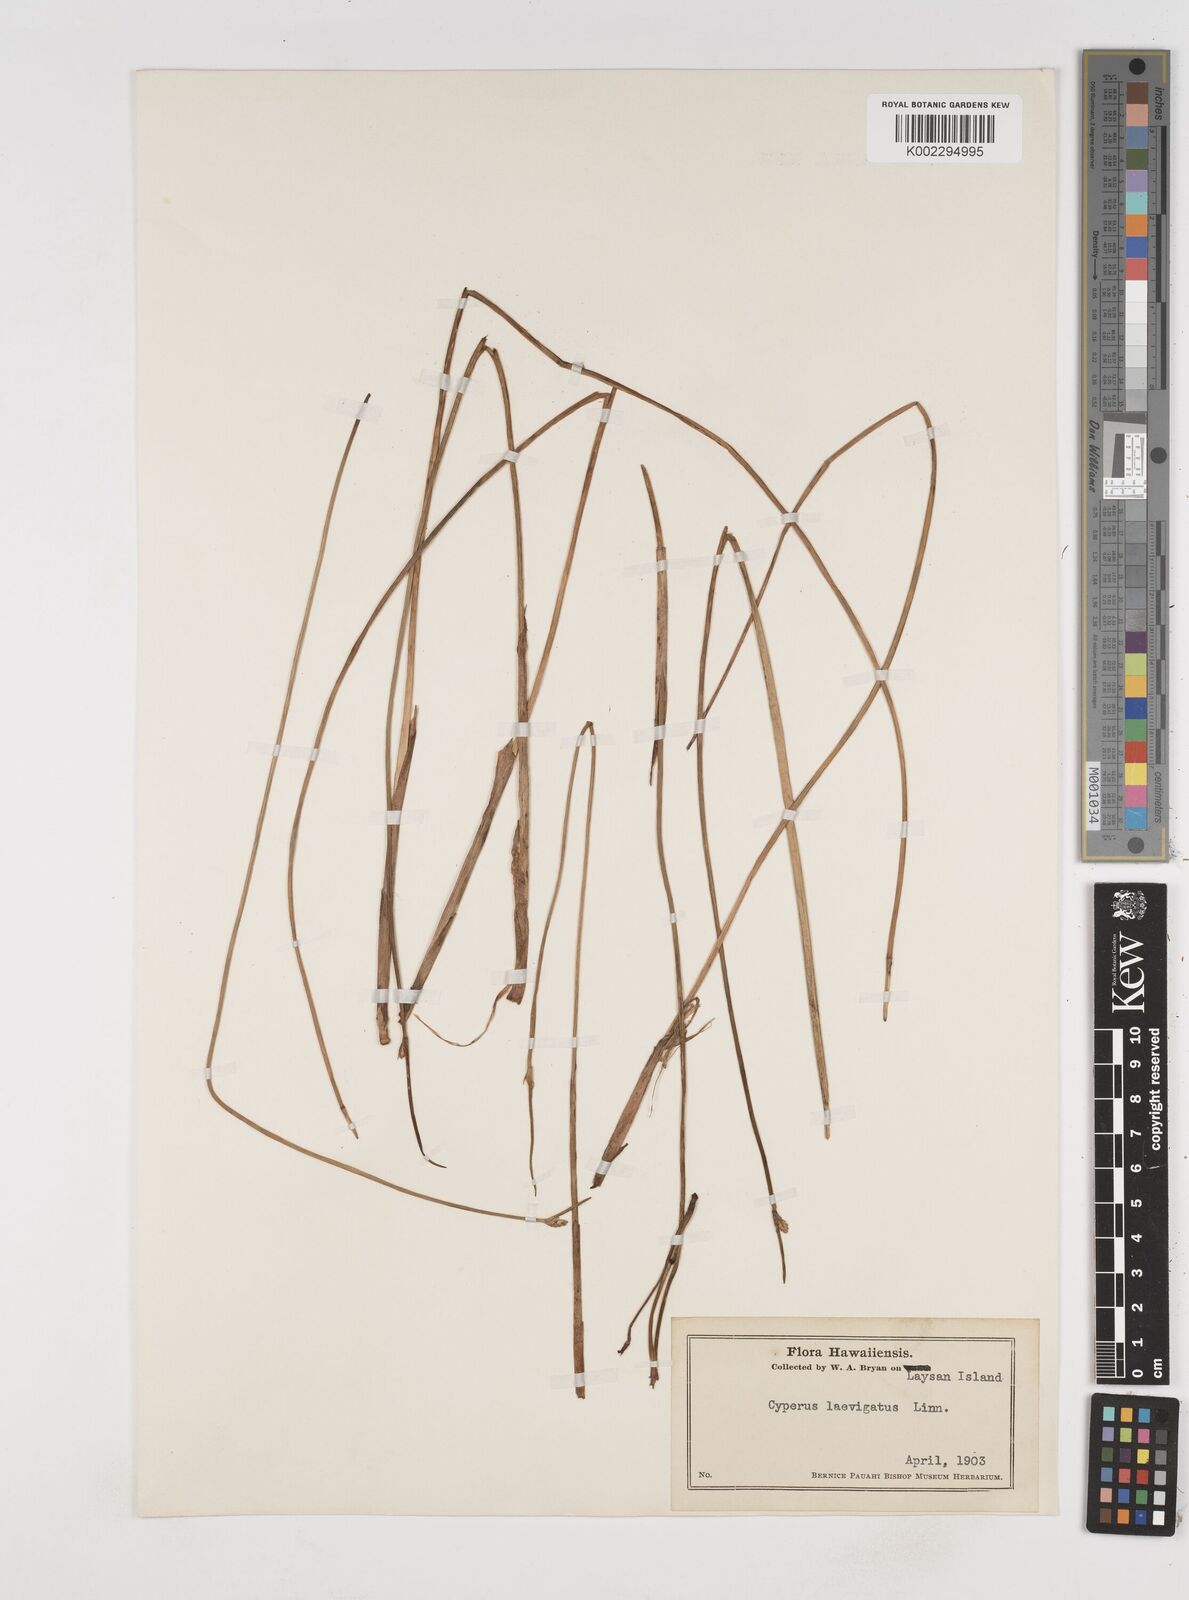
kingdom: Plantae
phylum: Tracheophyta
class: Liliopsida
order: Poales
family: Cyperaceae
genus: Cyperus
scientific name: Cyperus laevigatus
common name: Smooth flat sedge
